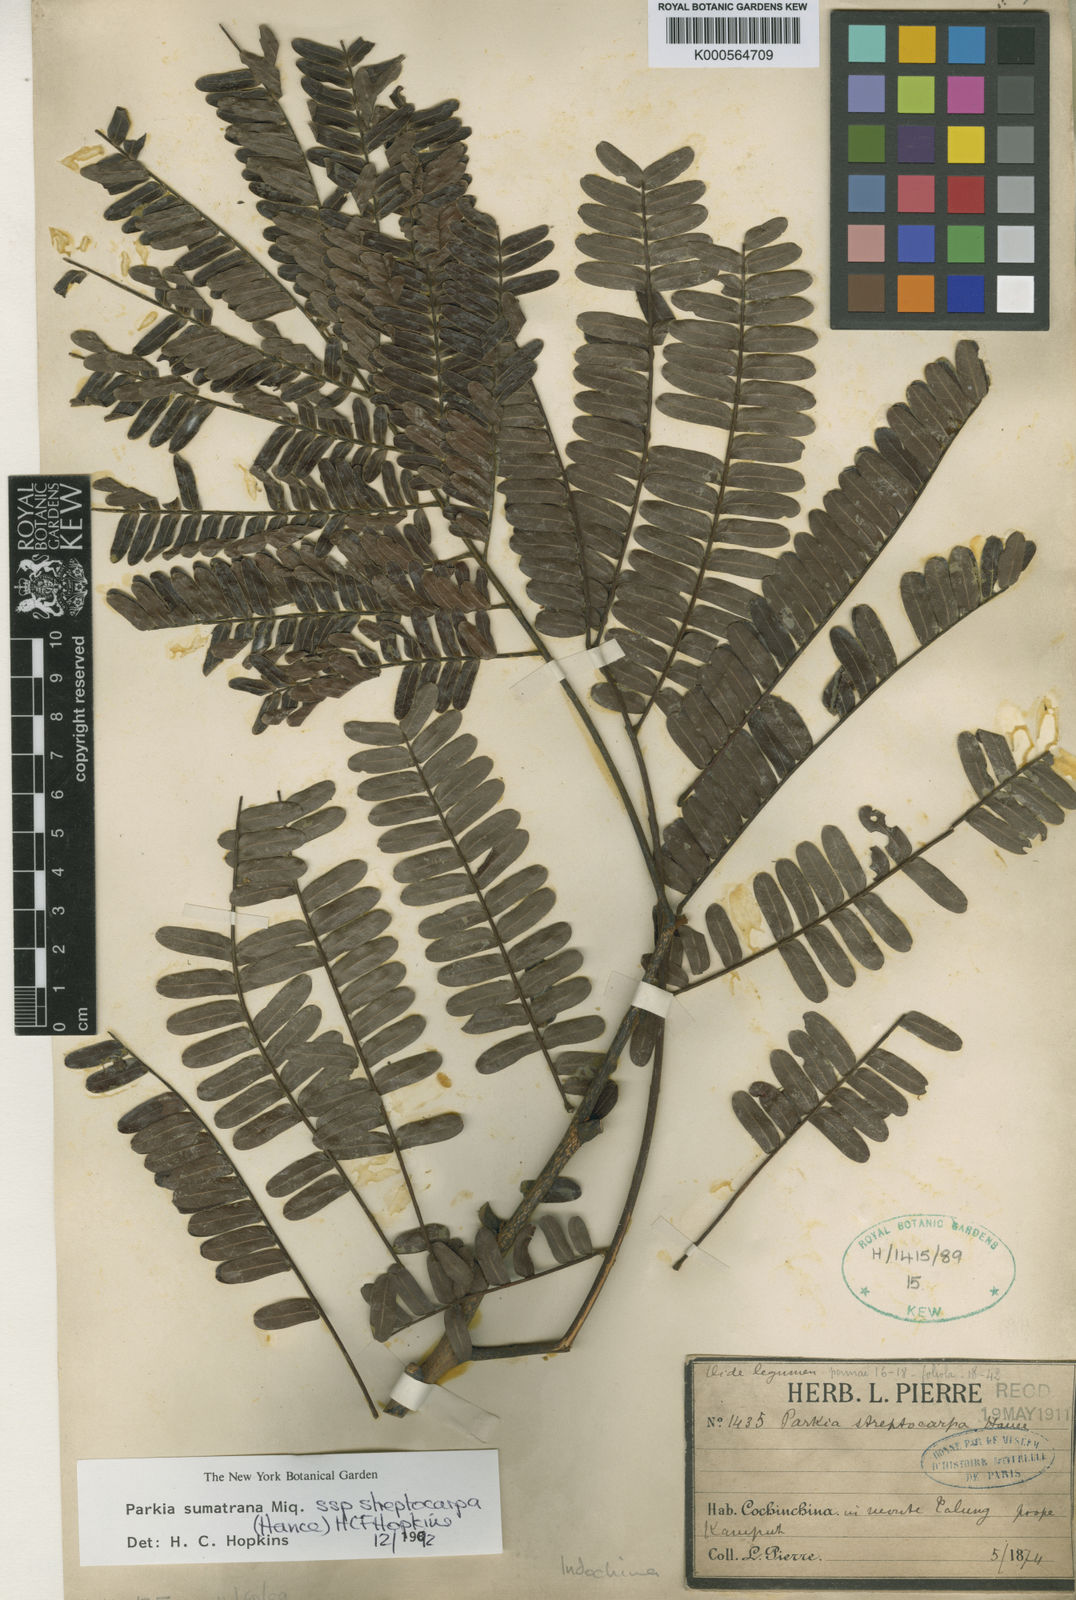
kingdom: Plantae
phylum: Tracheophyta
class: Magnoliopsida
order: Fabales
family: Fabaceae
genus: Parkia
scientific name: Parkia sumatrana
